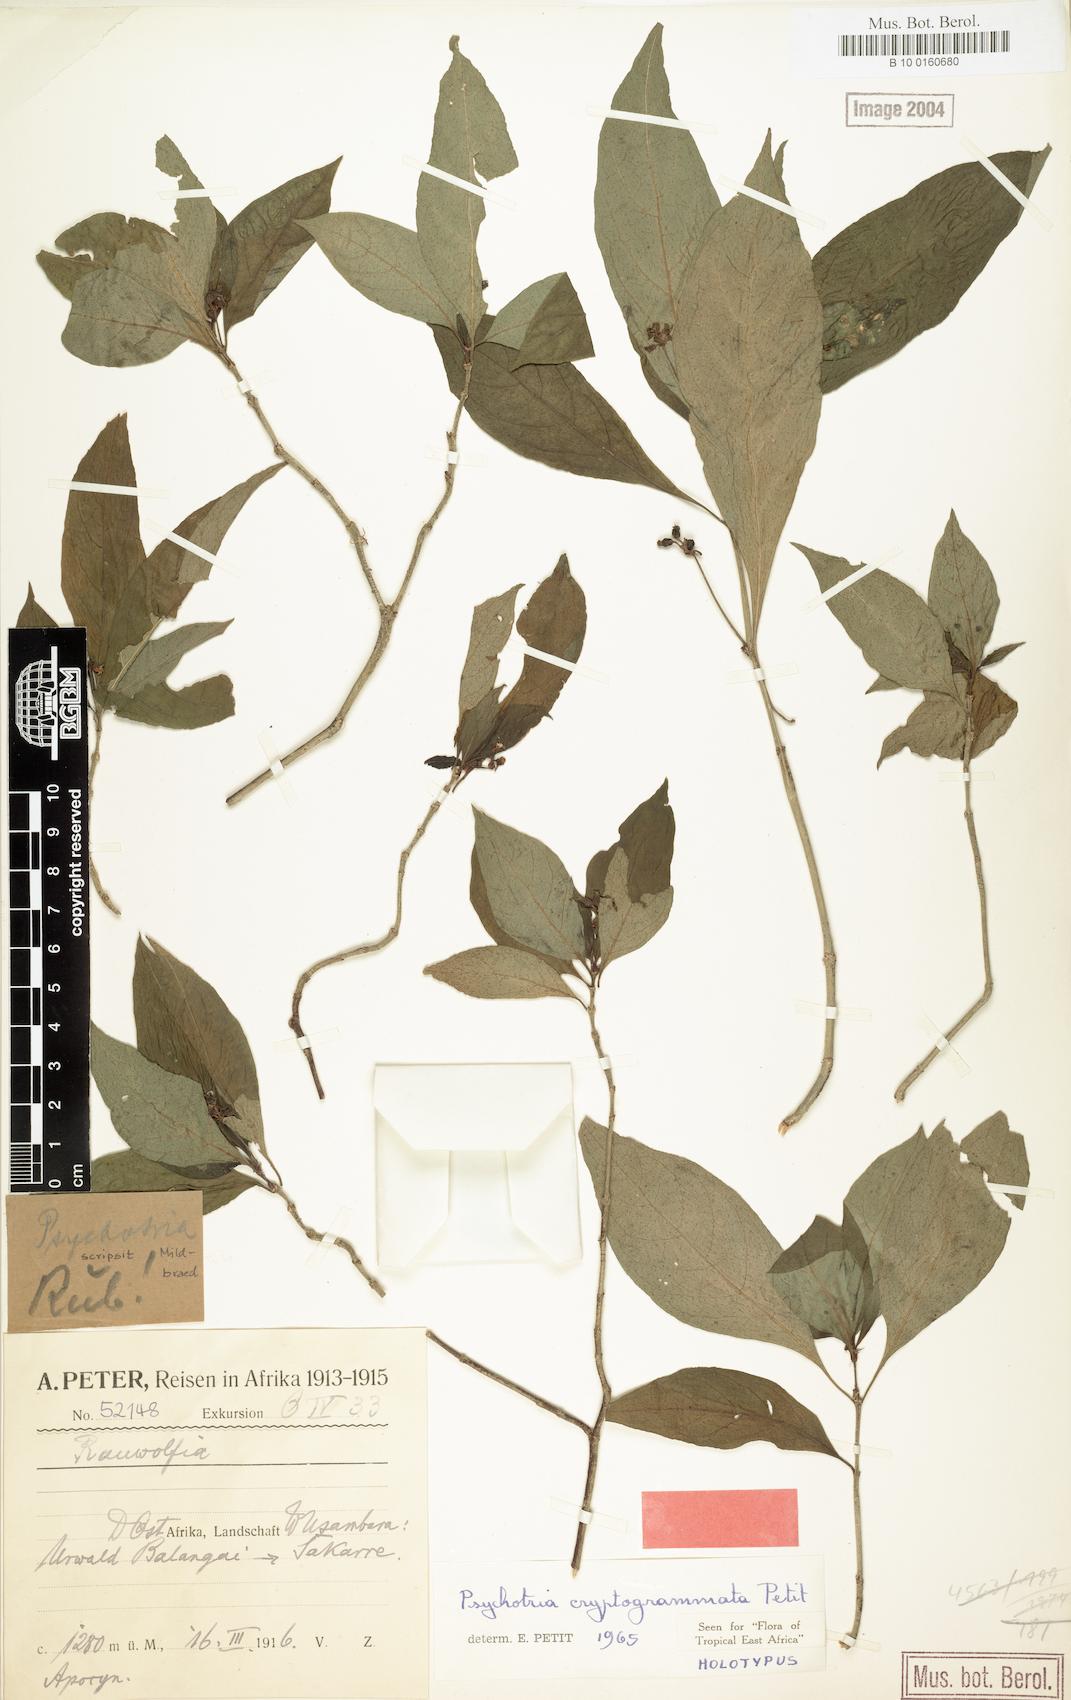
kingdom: Plantae
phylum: Tracheophyta
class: Magnoliopsida
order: Gentianales
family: Rubiaceae
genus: Psychotria
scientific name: Psychotria cryptogrammata
